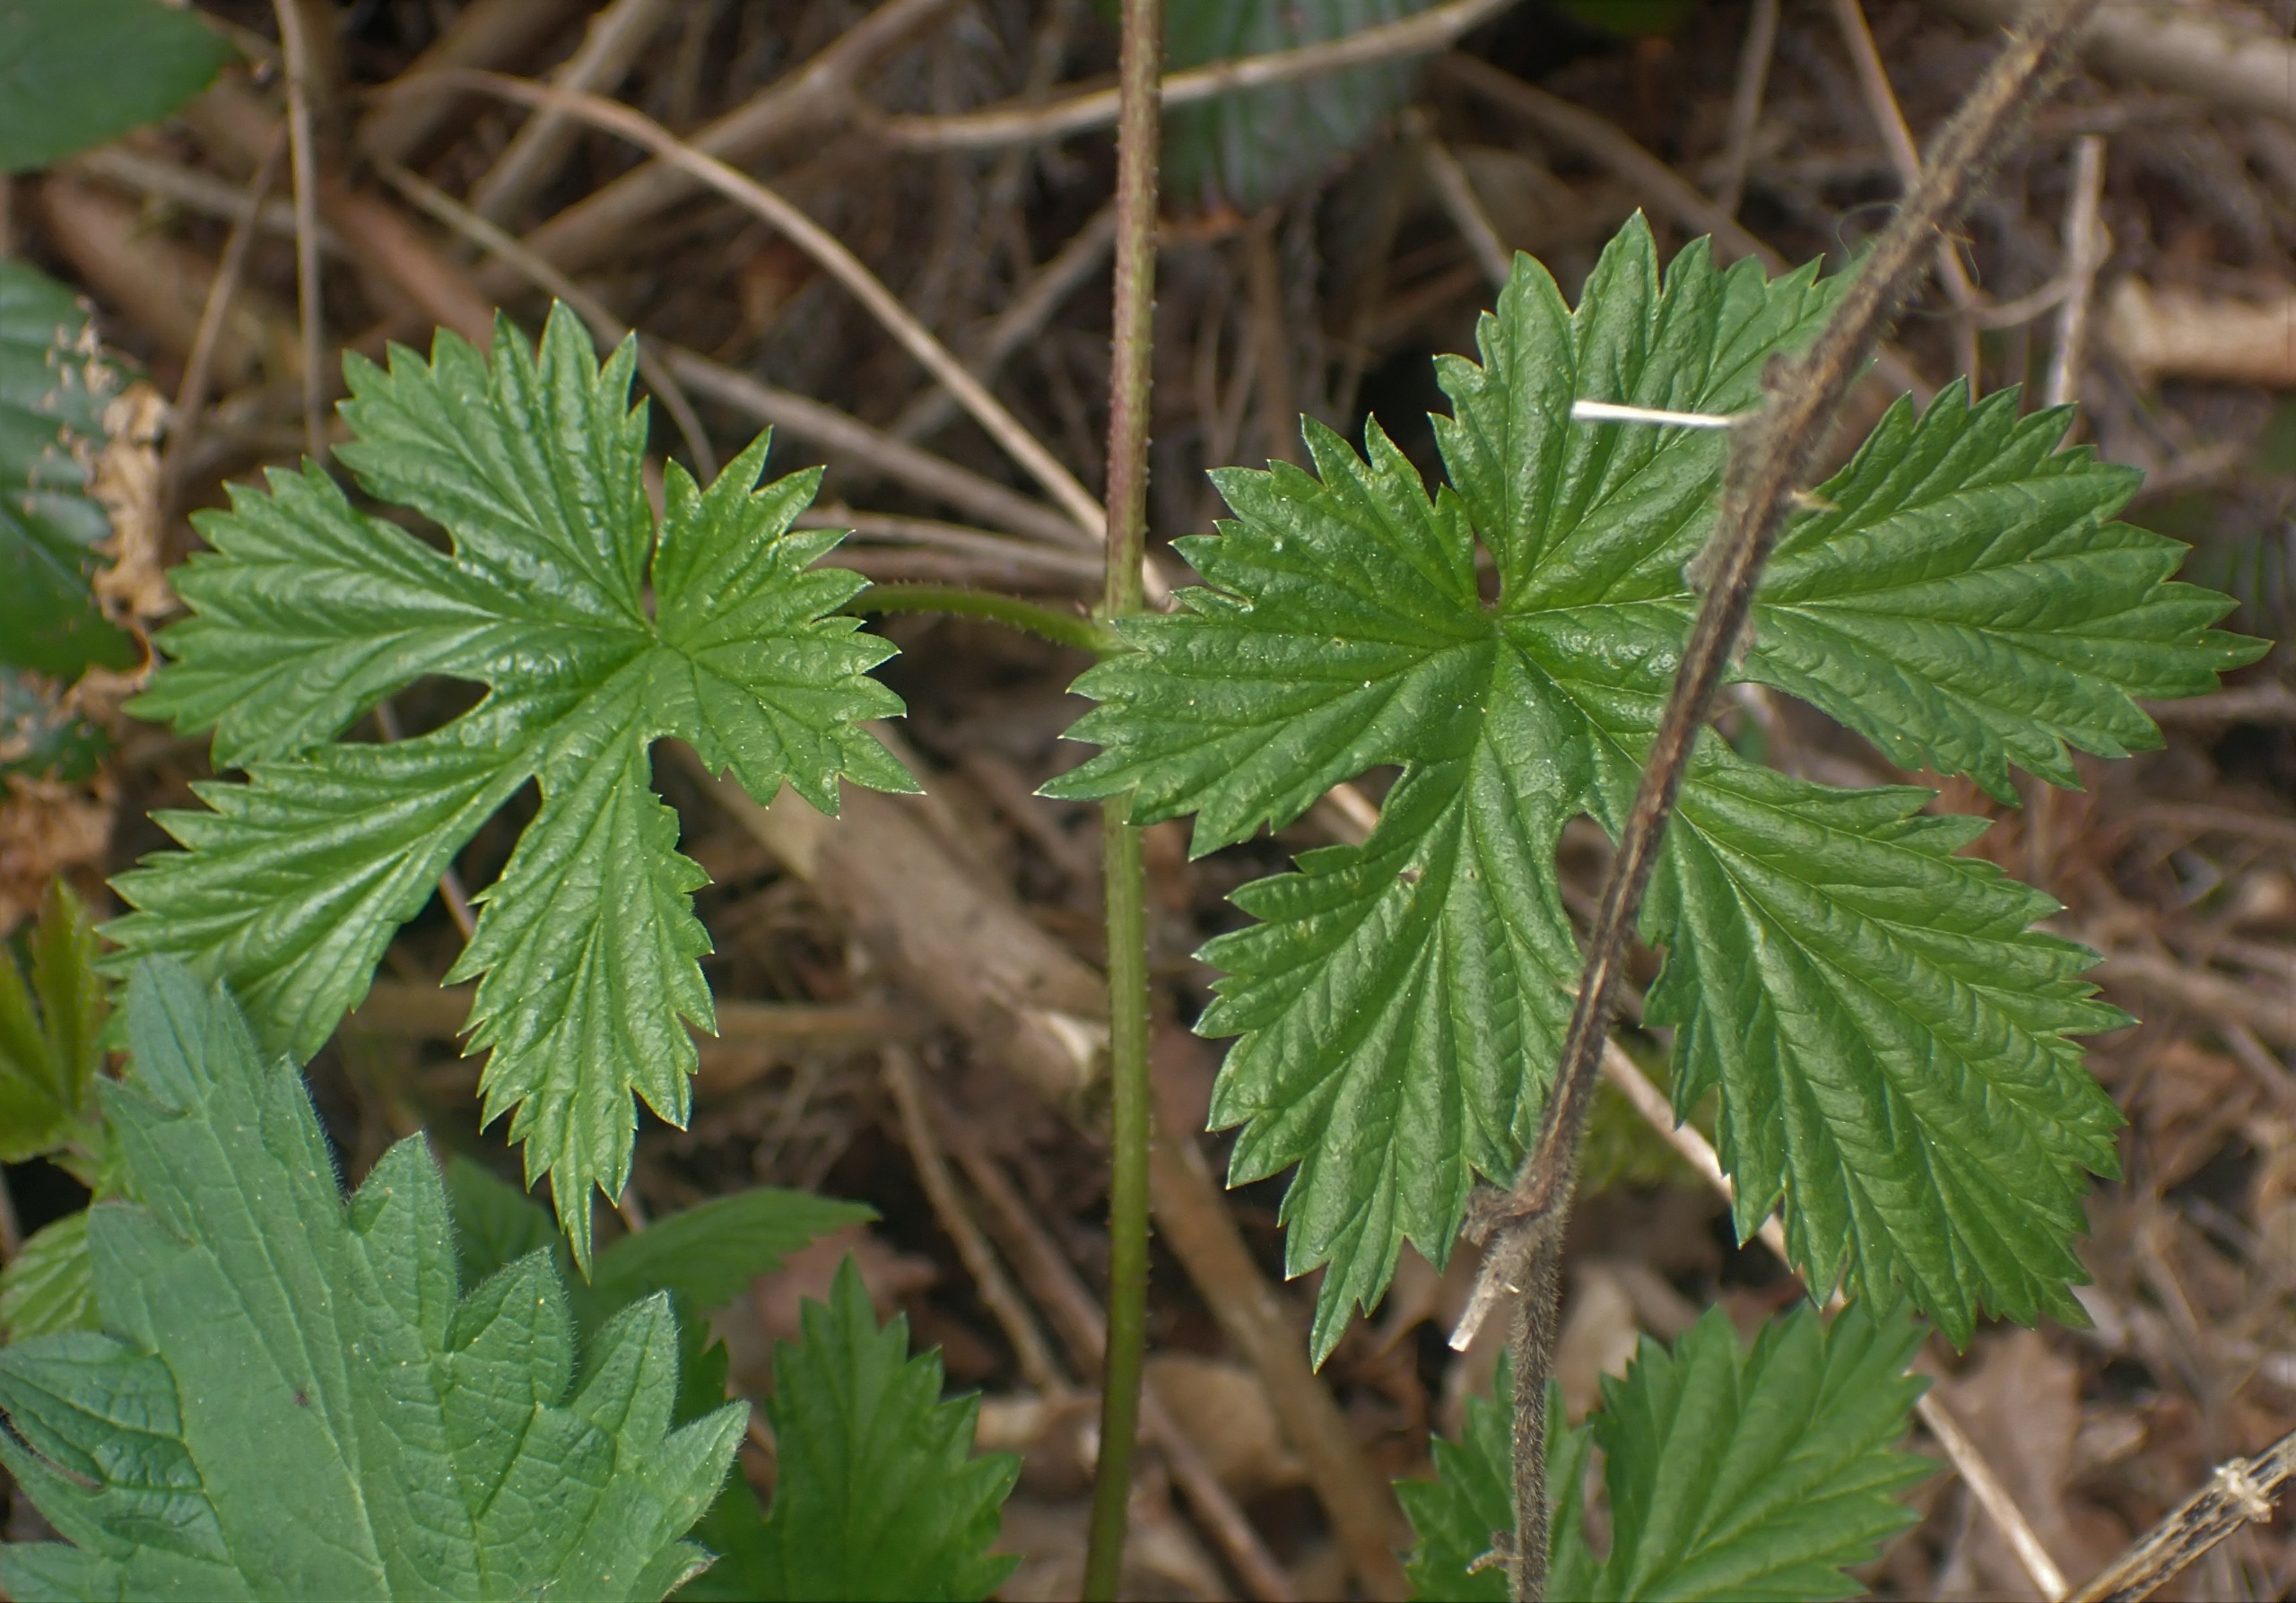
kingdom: Plantae
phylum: Tracheophyta
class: Magnoliopsida
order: Rosales
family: Cannabaceae
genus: Humulus
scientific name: Humulus lupulus
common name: Humle
